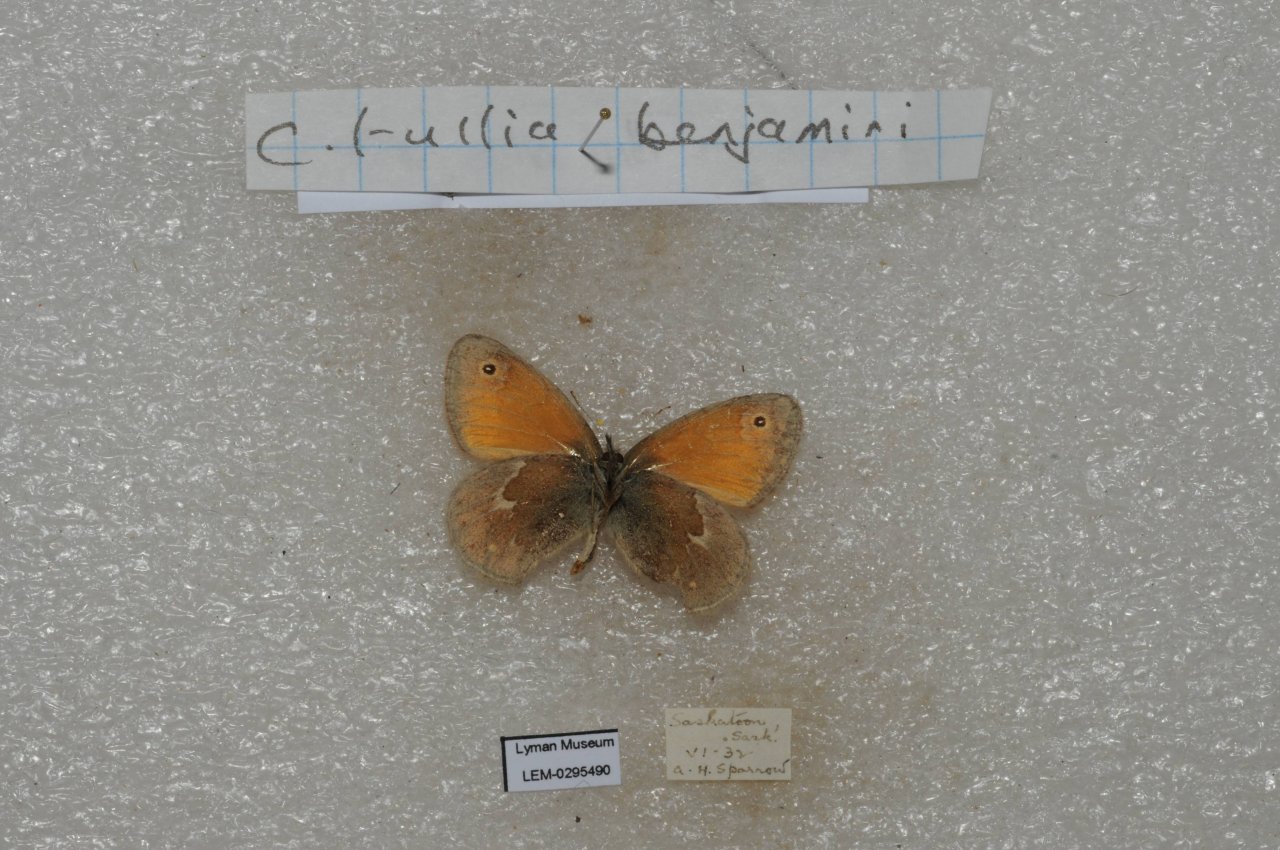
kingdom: Animalia
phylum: Arthropoda
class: Insecta
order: Lepidoptera
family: Nymphalidae
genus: Coenonympha
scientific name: Coenonympha tullia
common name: Large Heath
